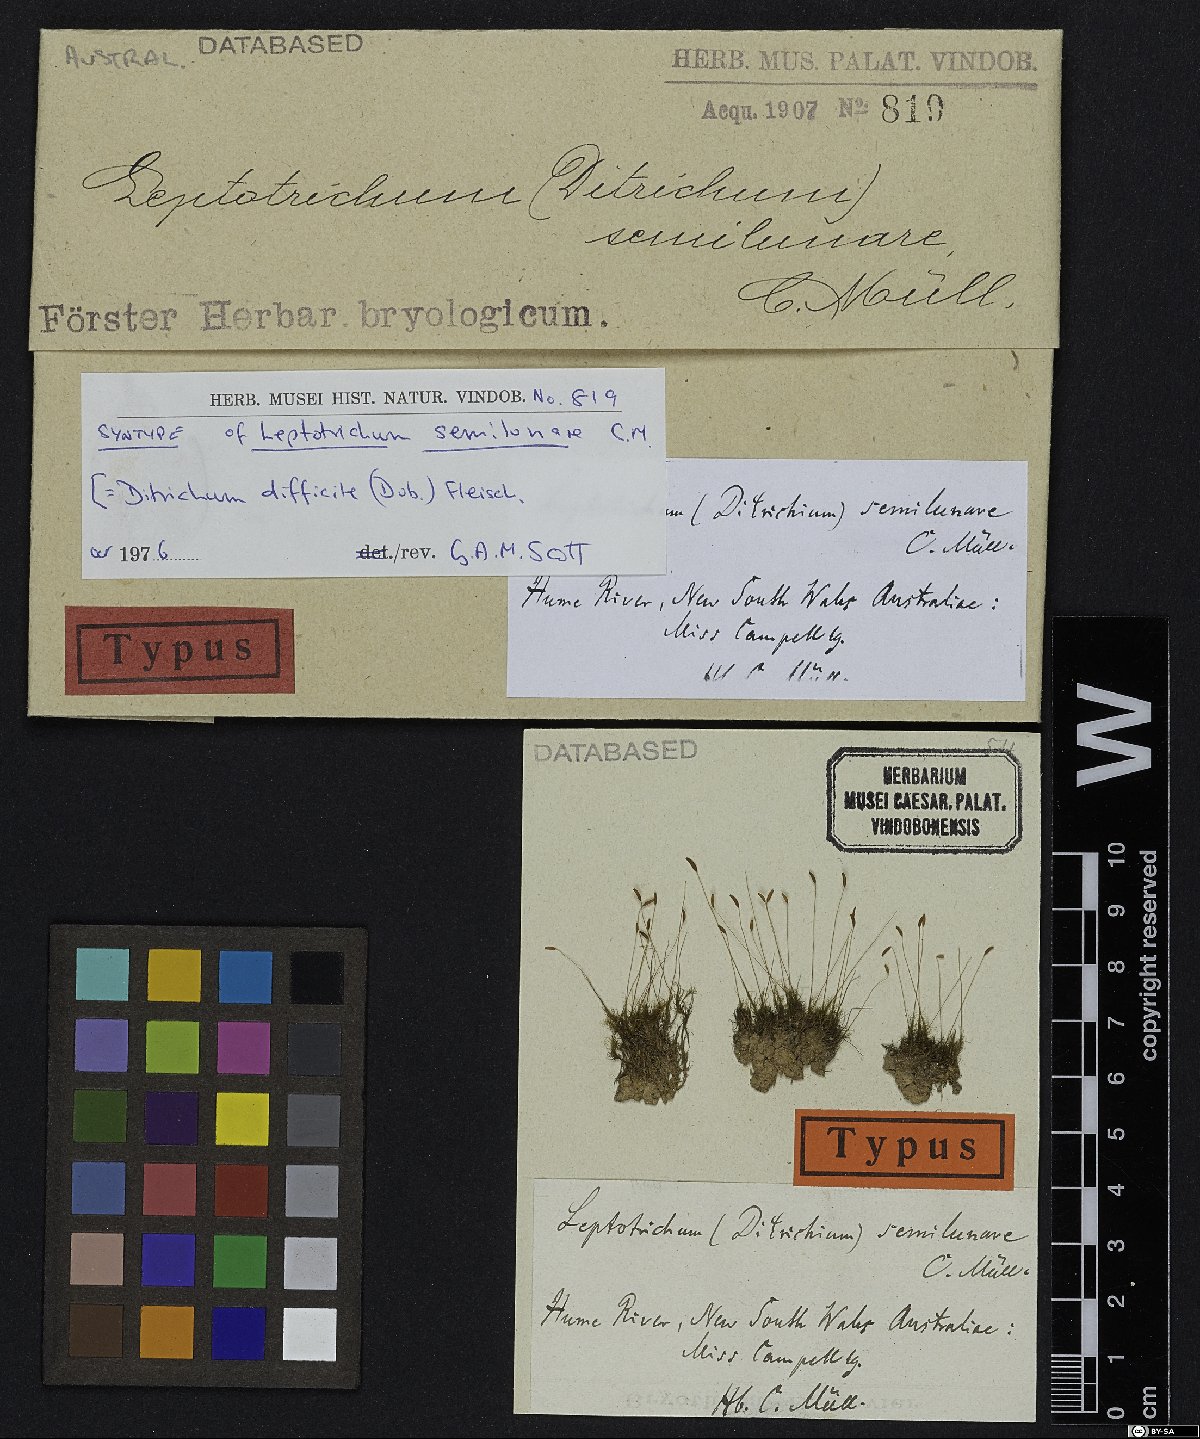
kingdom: Plantae
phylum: Bryophyta
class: Bryopsida
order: Dicranales
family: Ditrichaceae
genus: Ditrichum
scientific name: Ditrichum difficile
